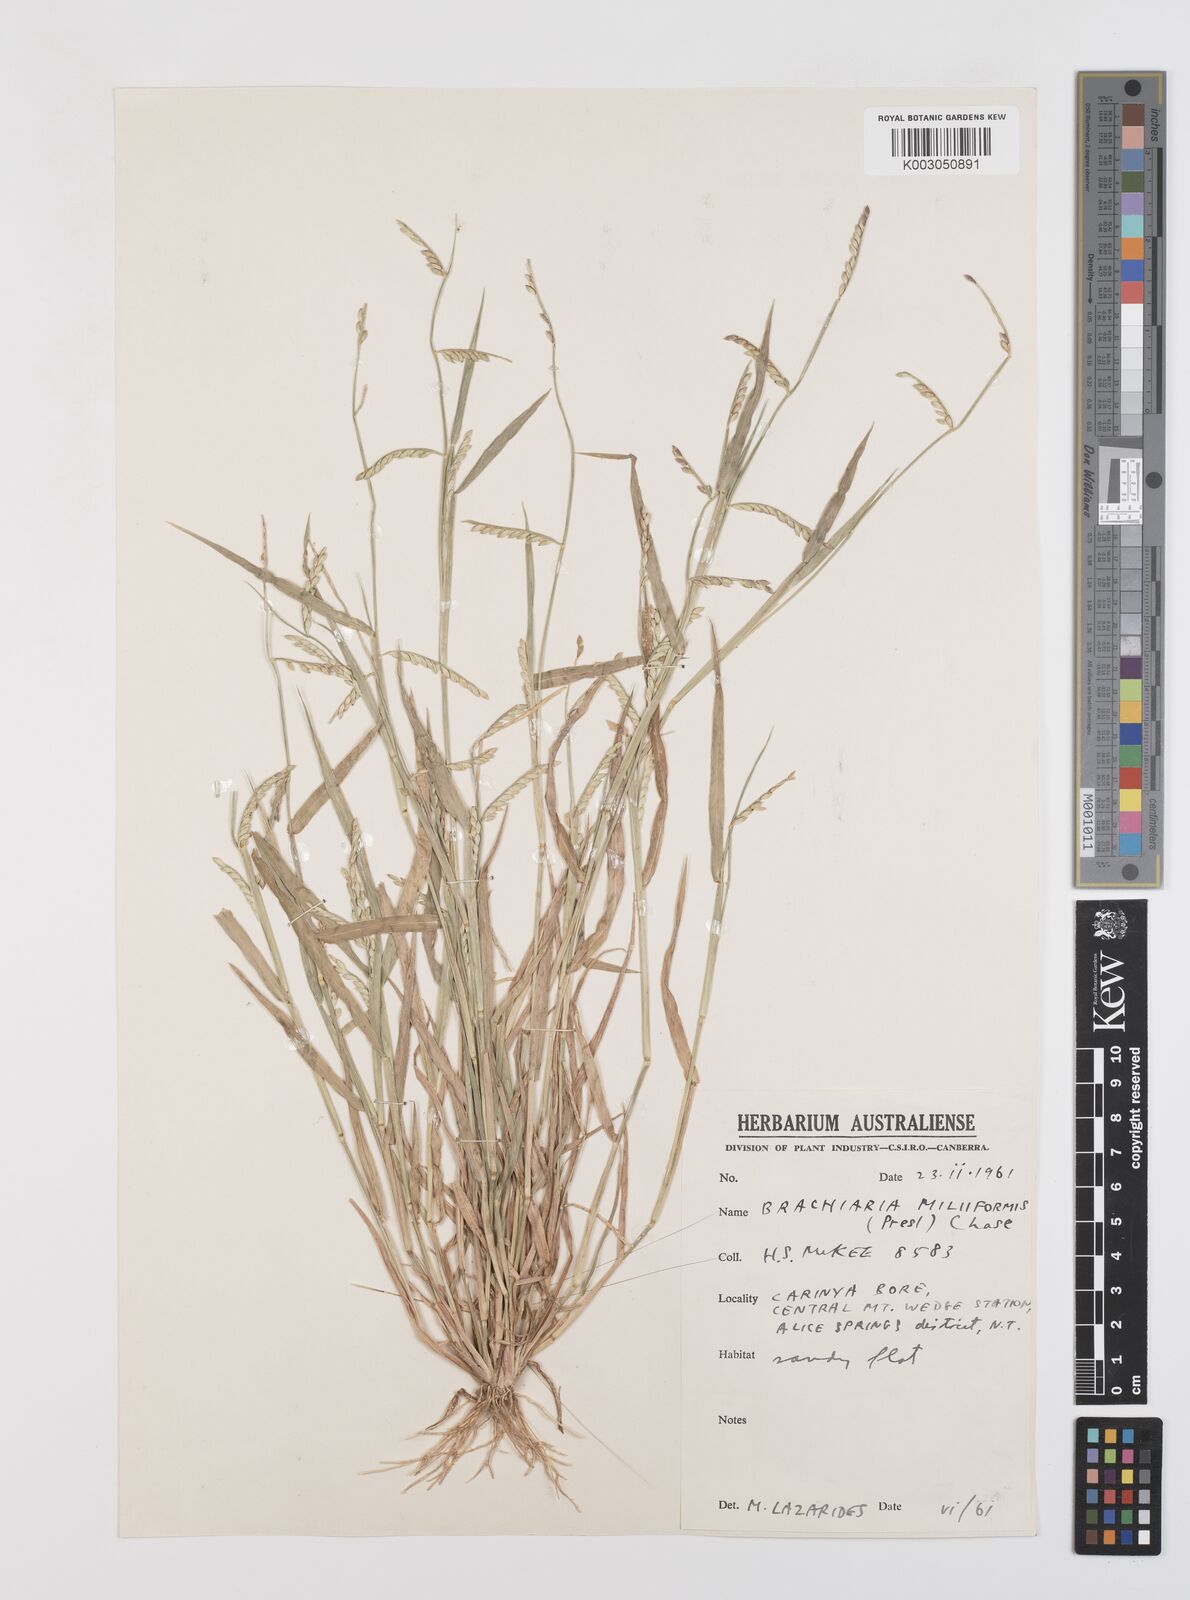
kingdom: Plantae
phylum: Tracheophyta
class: Liliopsida
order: Poales
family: Poaceae
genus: Urochloa
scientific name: Urochloa subquadripara
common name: Armgrass millet
